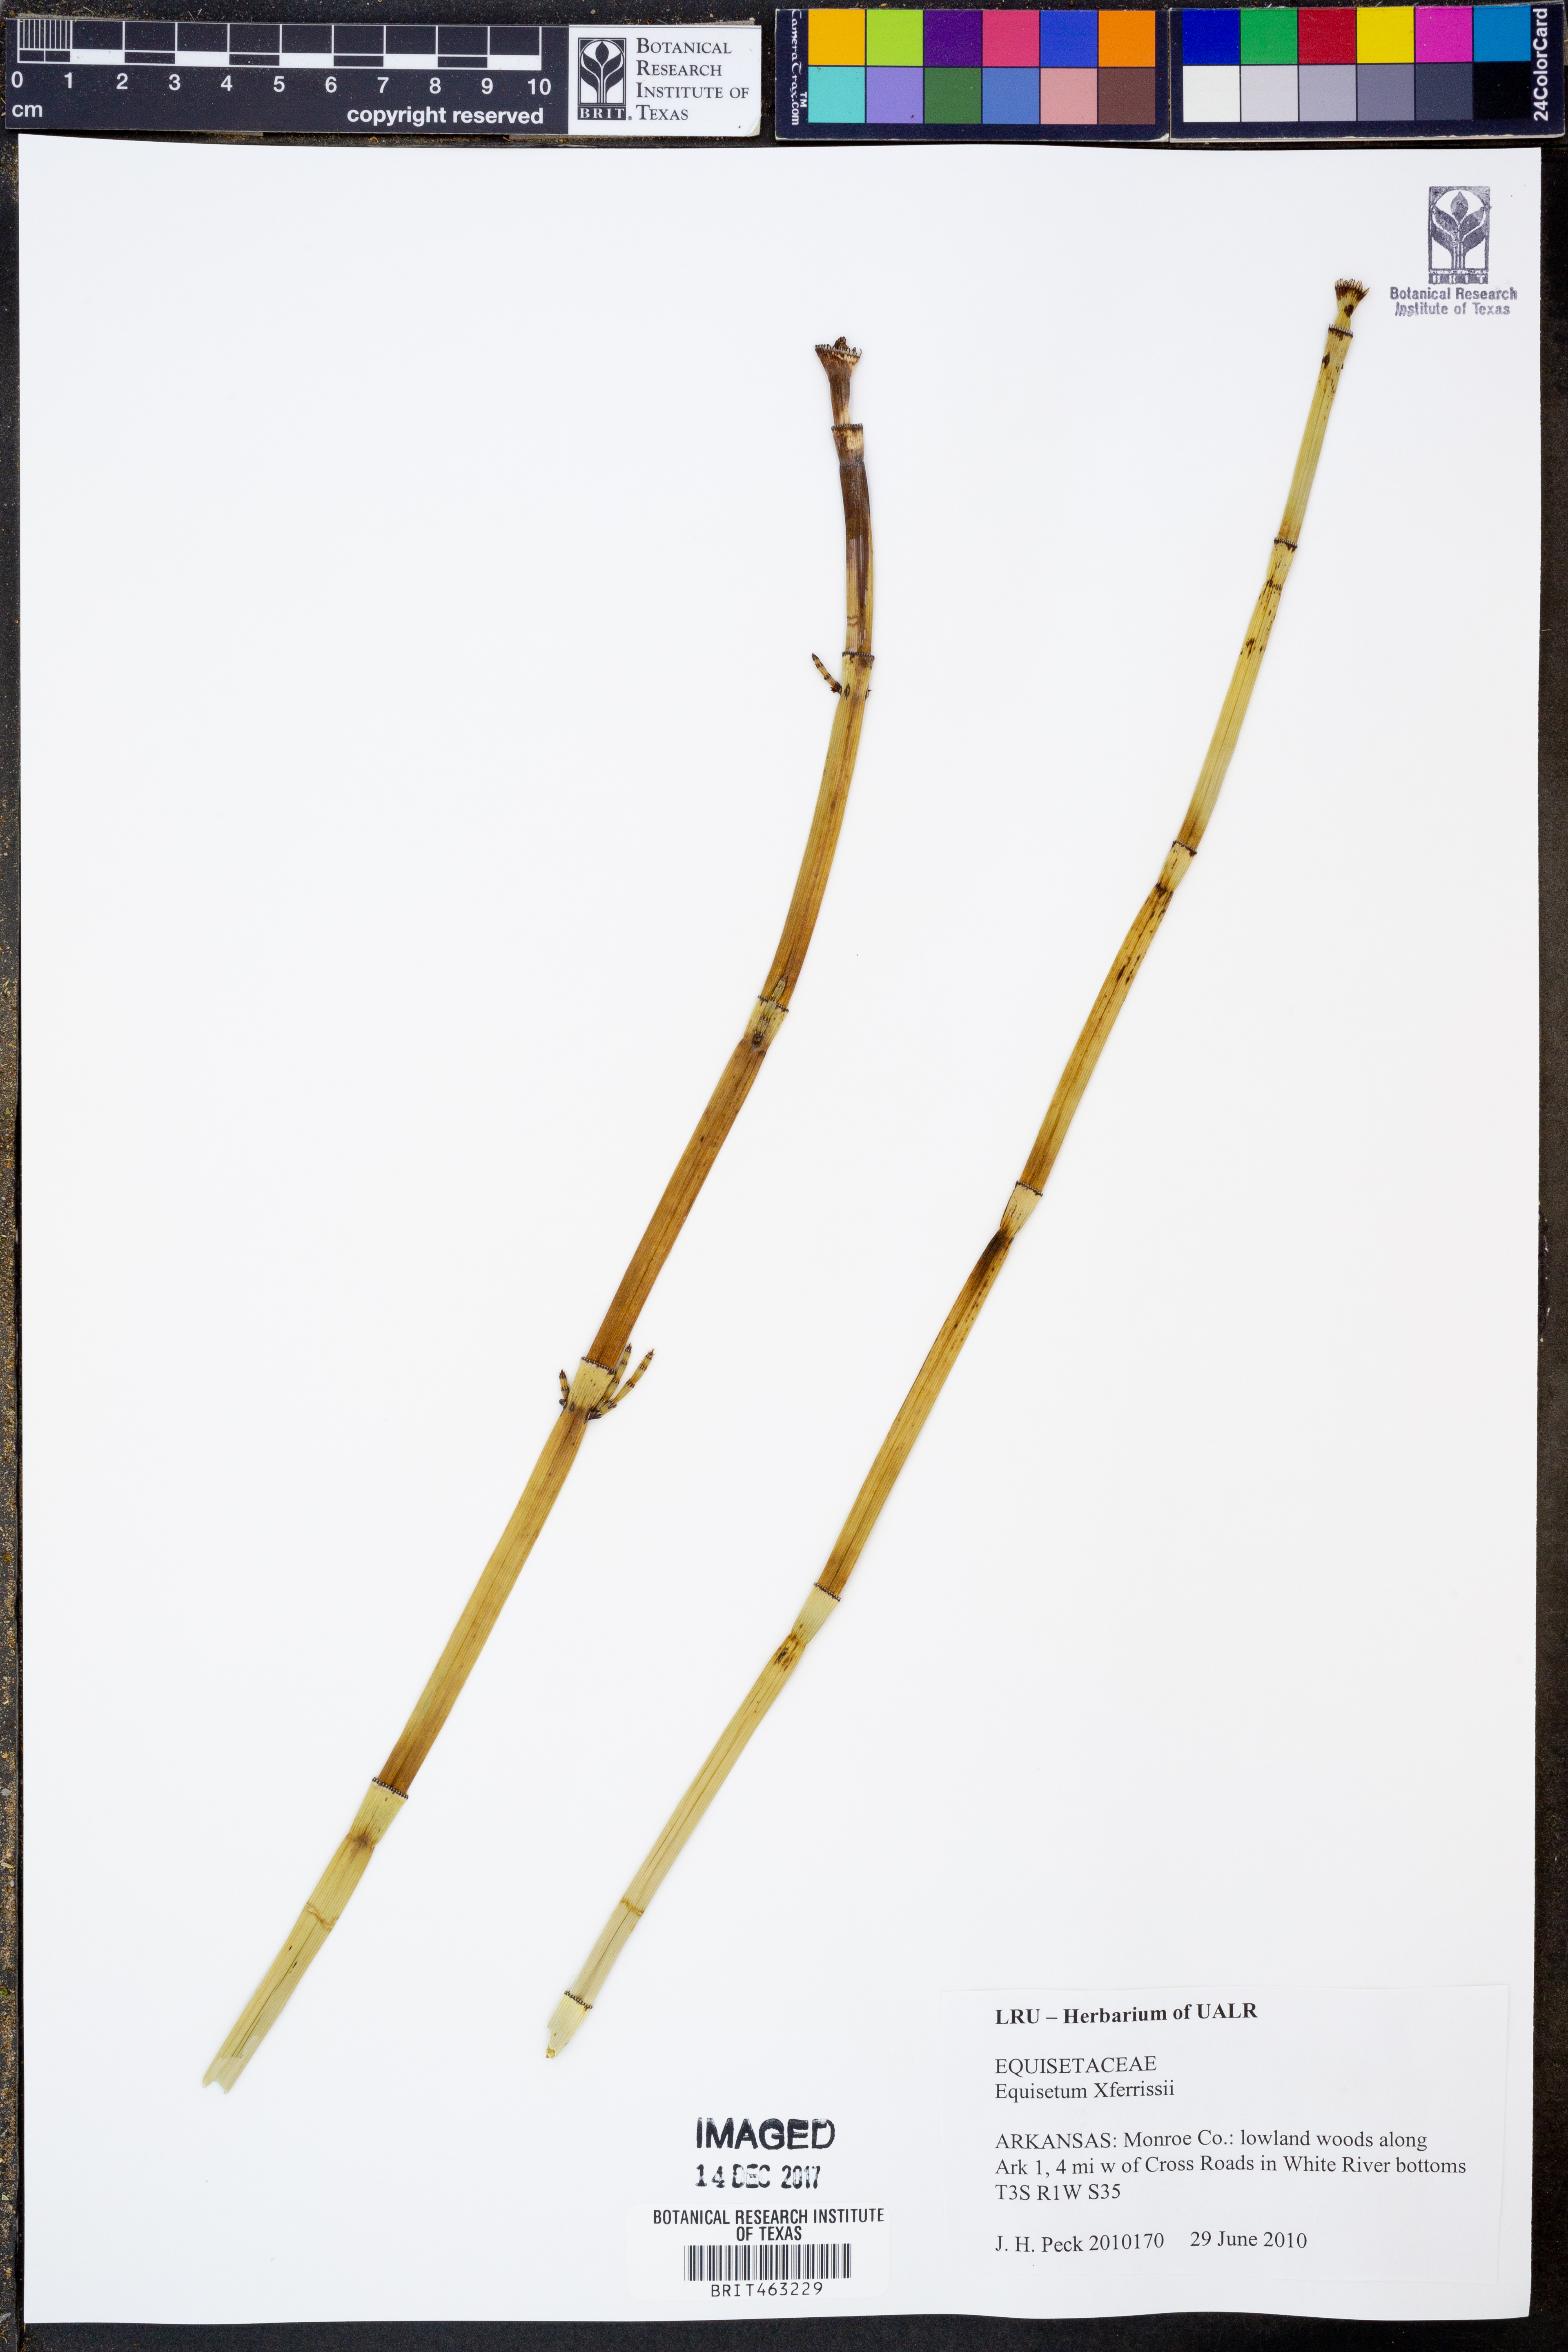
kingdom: Plantae
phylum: Tracheophyta
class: Polypodiopsida
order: Equisetales
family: Equisetaceae
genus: Equisetum
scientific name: Equisetum ferrissii
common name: Ferriss' horsetail
